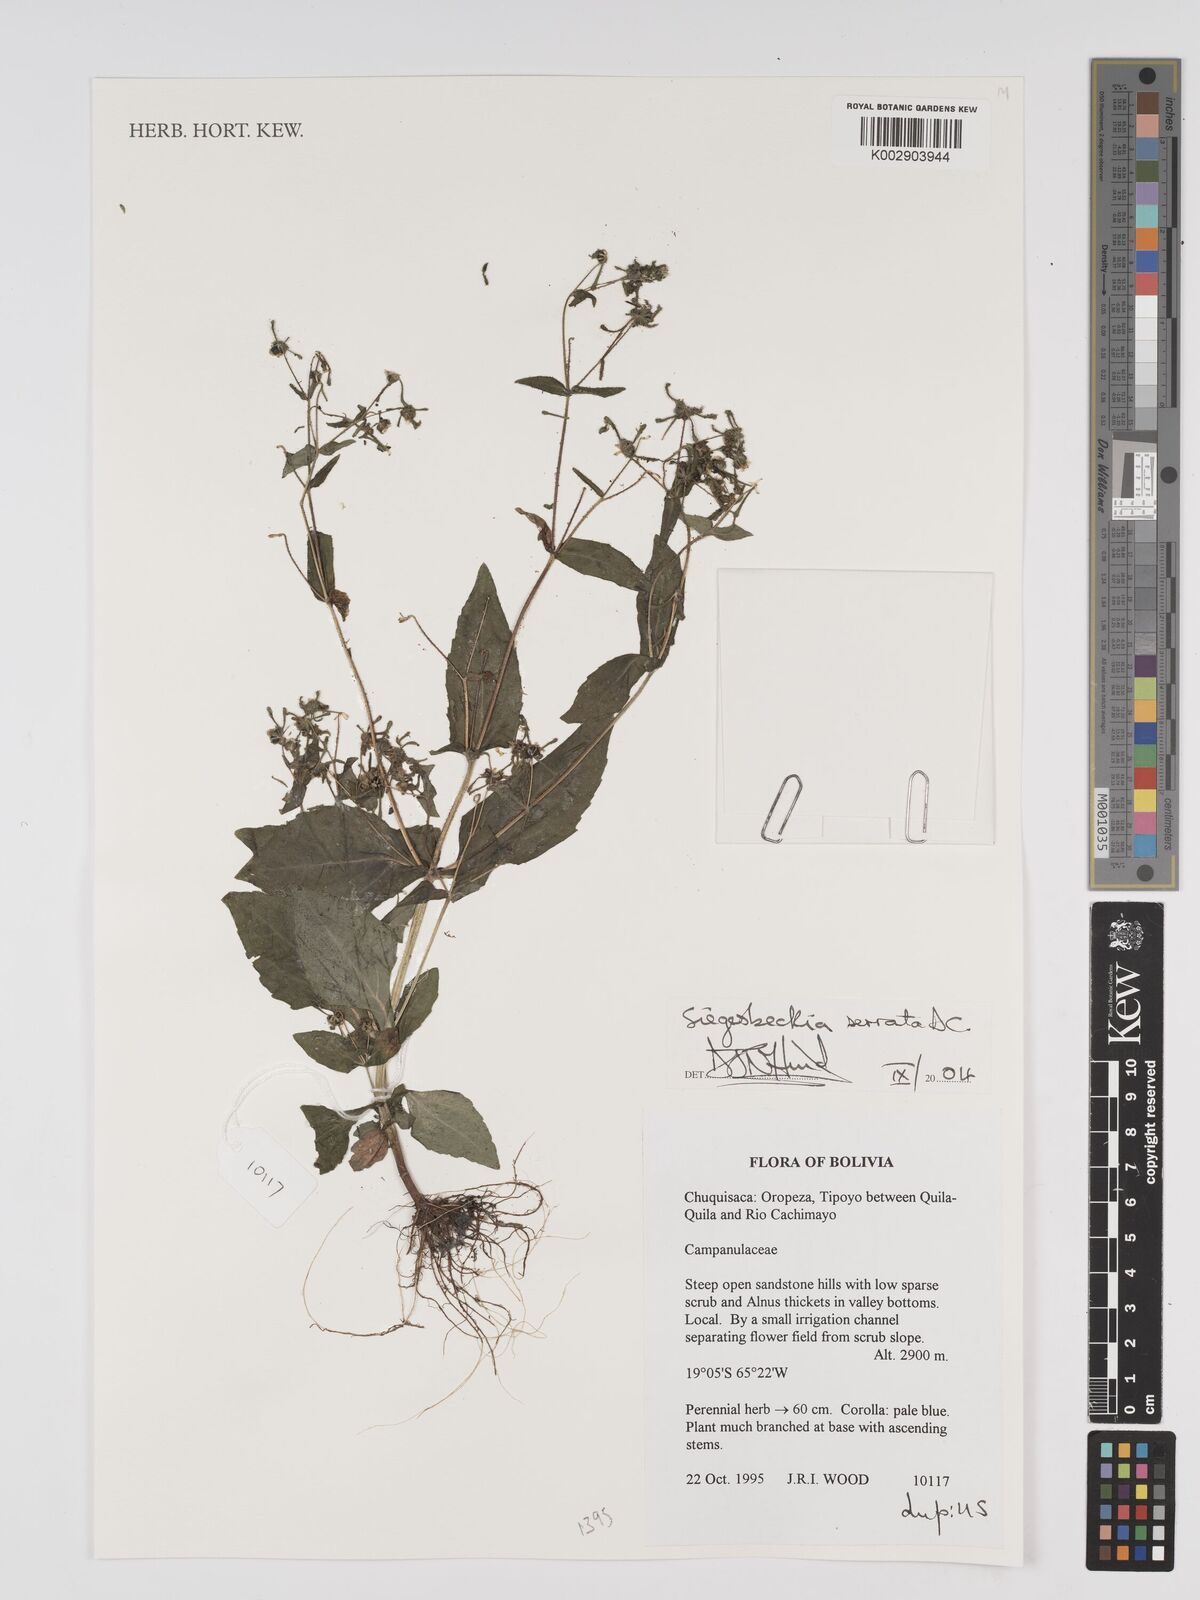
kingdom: Plantae
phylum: Tracheophyta
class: Magnoliopsida
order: Asterales
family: Asteraceae
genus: Sigesbeckia
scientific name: Sigesbeckia jorullensis
